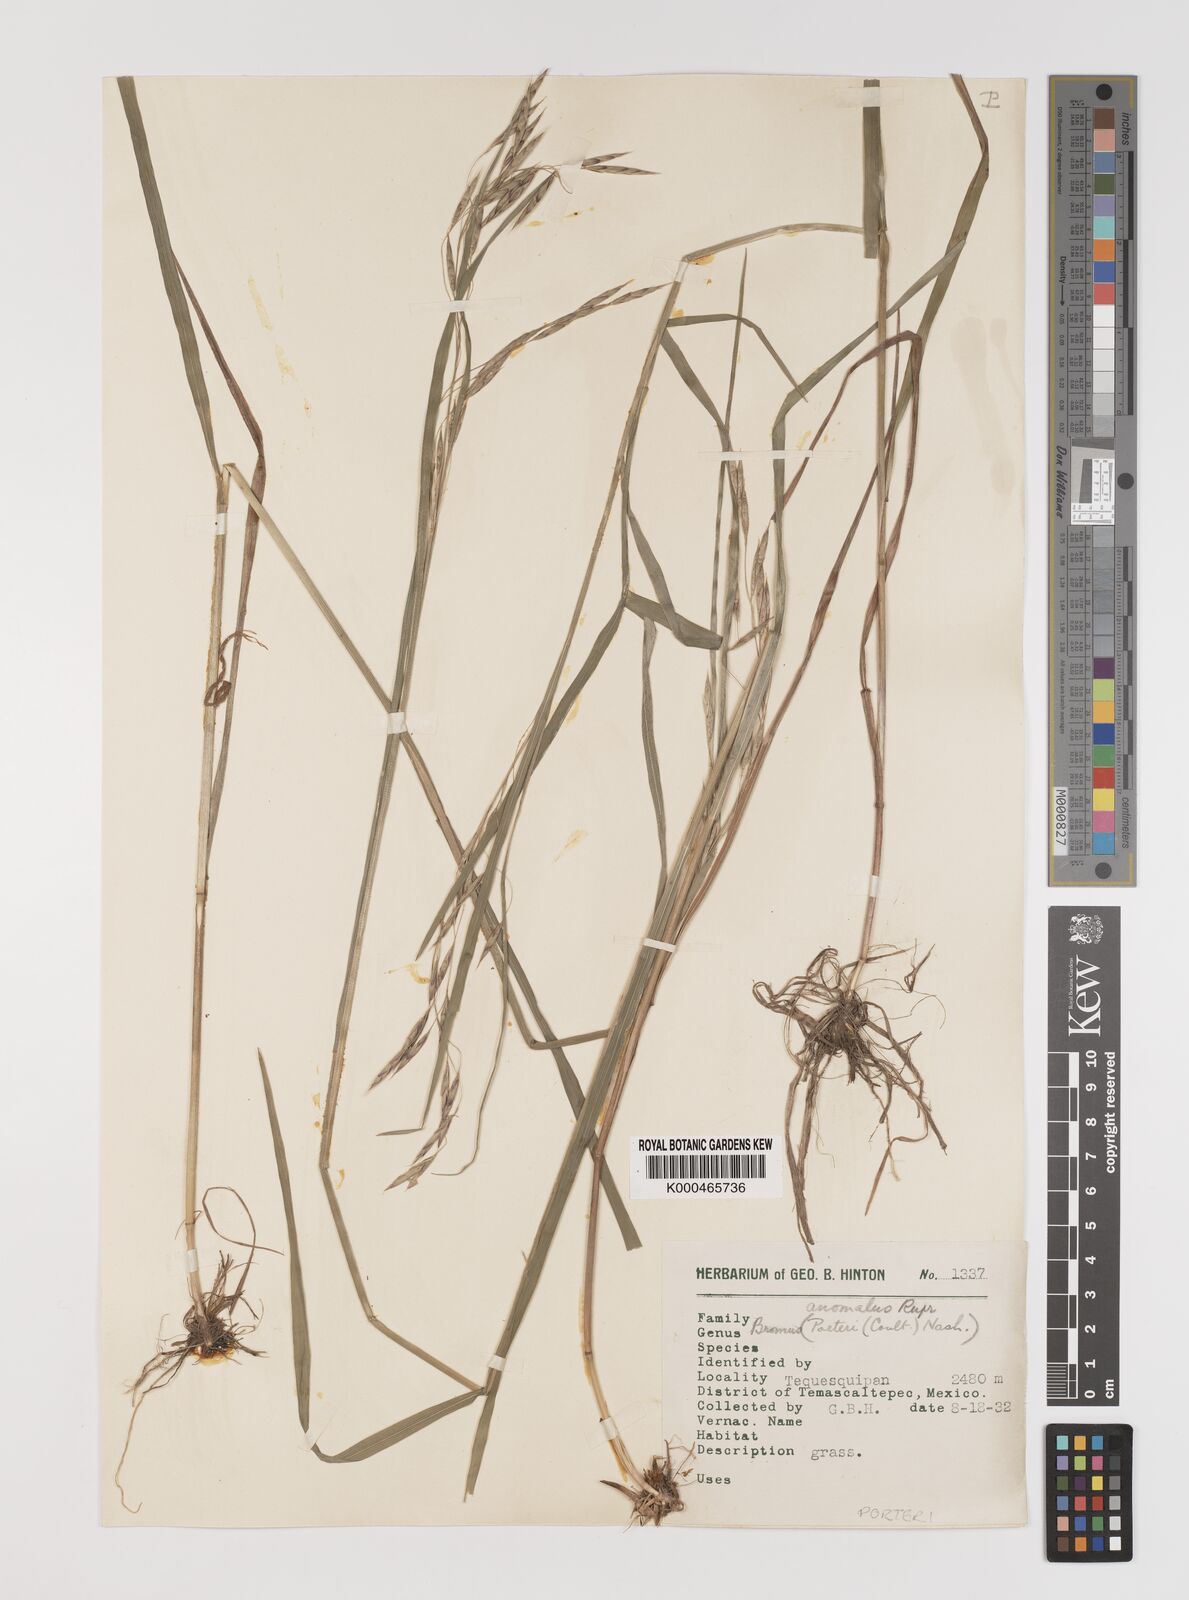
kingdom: Plantae
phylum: Tracheophyta
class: Liliopsida
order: Poales
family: Poaceae
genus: Bromus
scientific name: Bromus porteri
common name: Nodding brome
